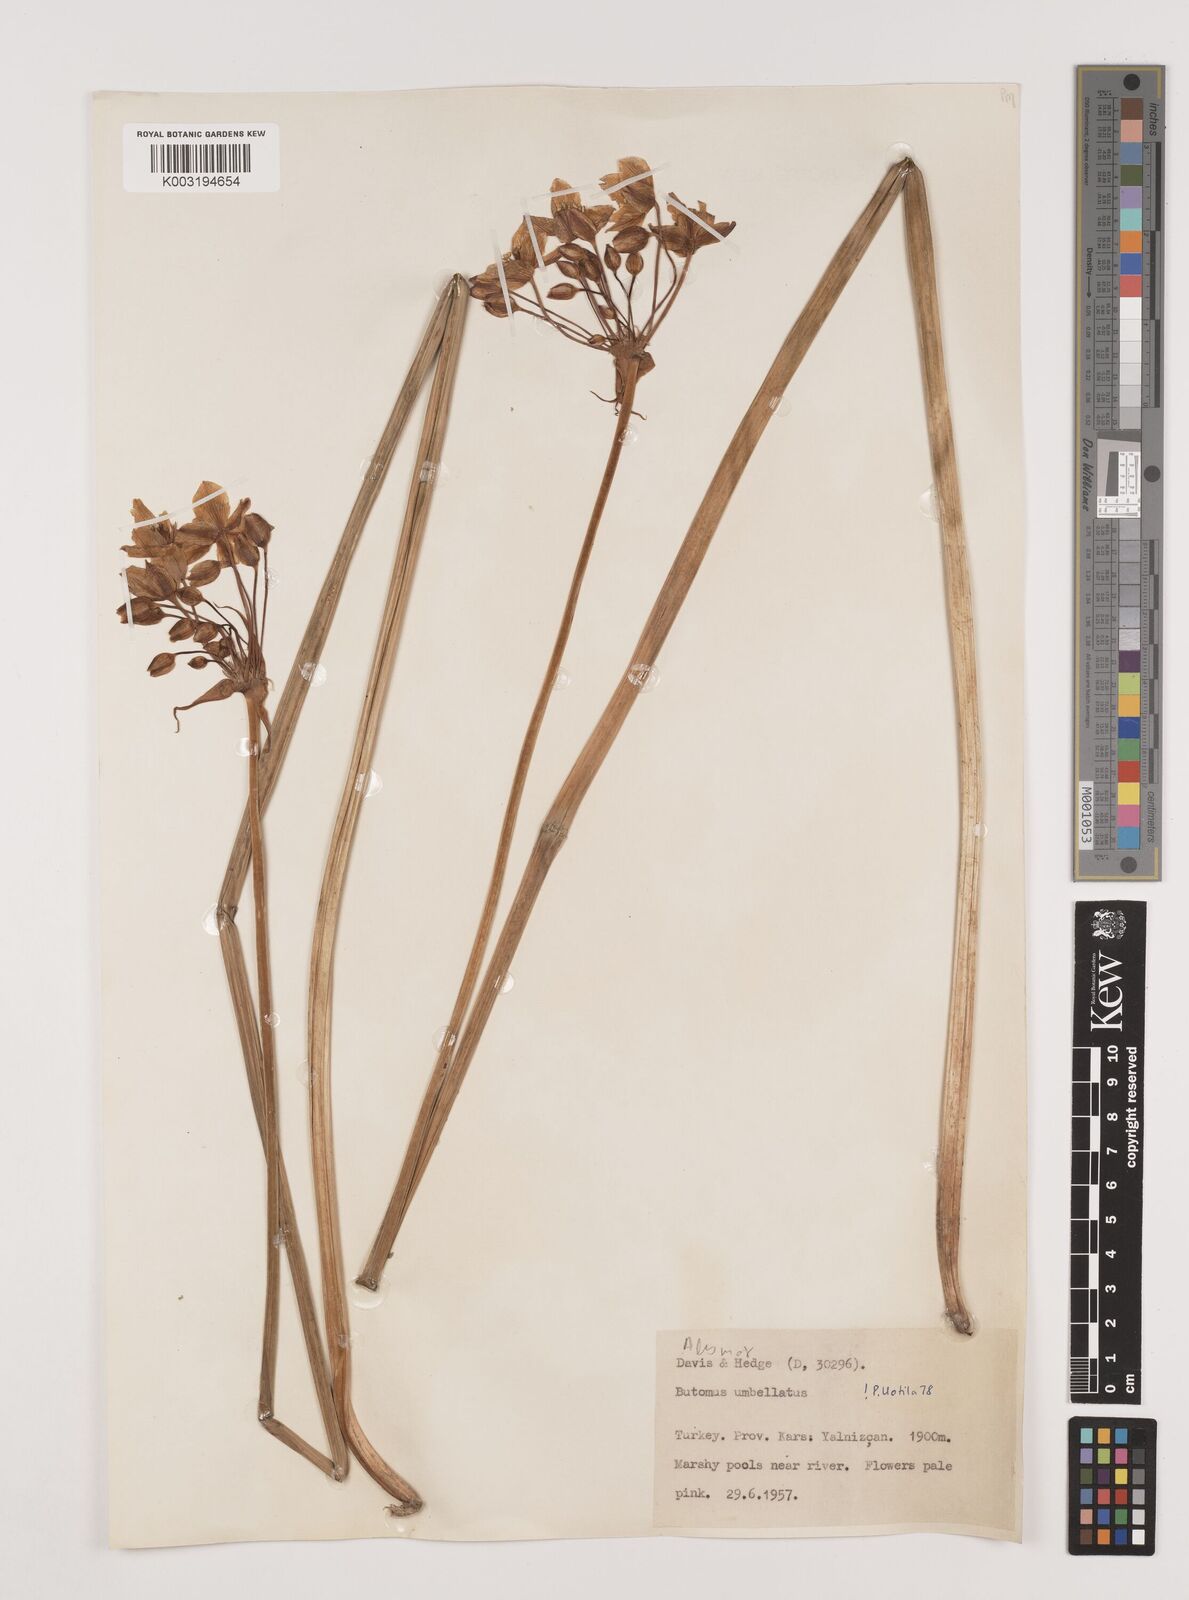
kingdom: Plantae
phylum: Tracheophyta
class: Liliopsida
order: Alismatales
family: Butomaceae
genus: Butomus
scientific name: Butomus
